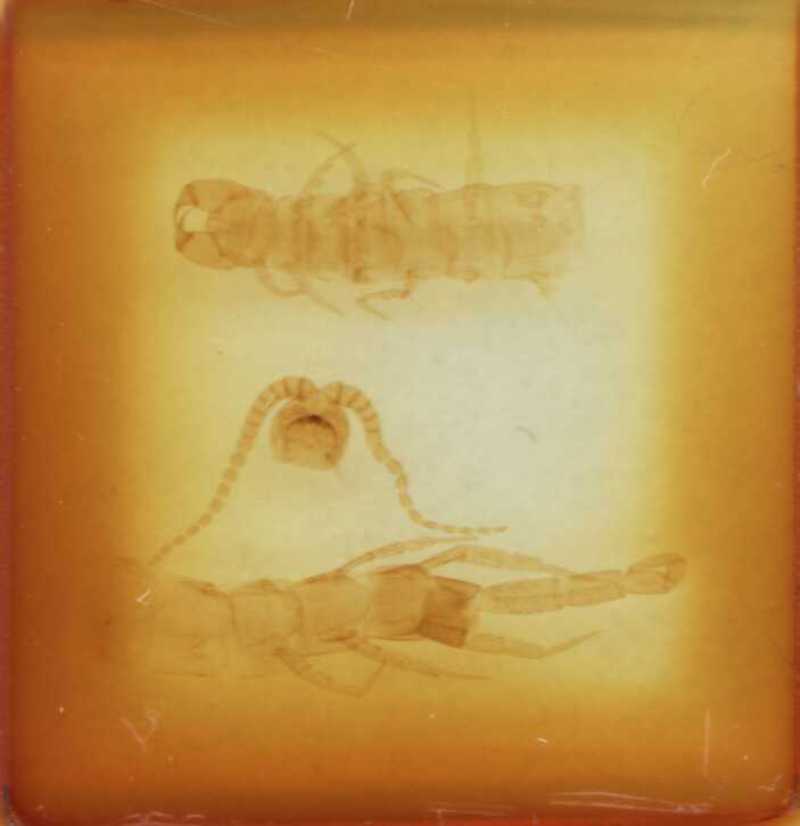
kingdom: Animalia
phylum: Arthropoda
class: Chilopoda
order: Scolopendromorpha
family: Cryptopidae
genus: Cryptops
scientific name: Cryptops croaticus
